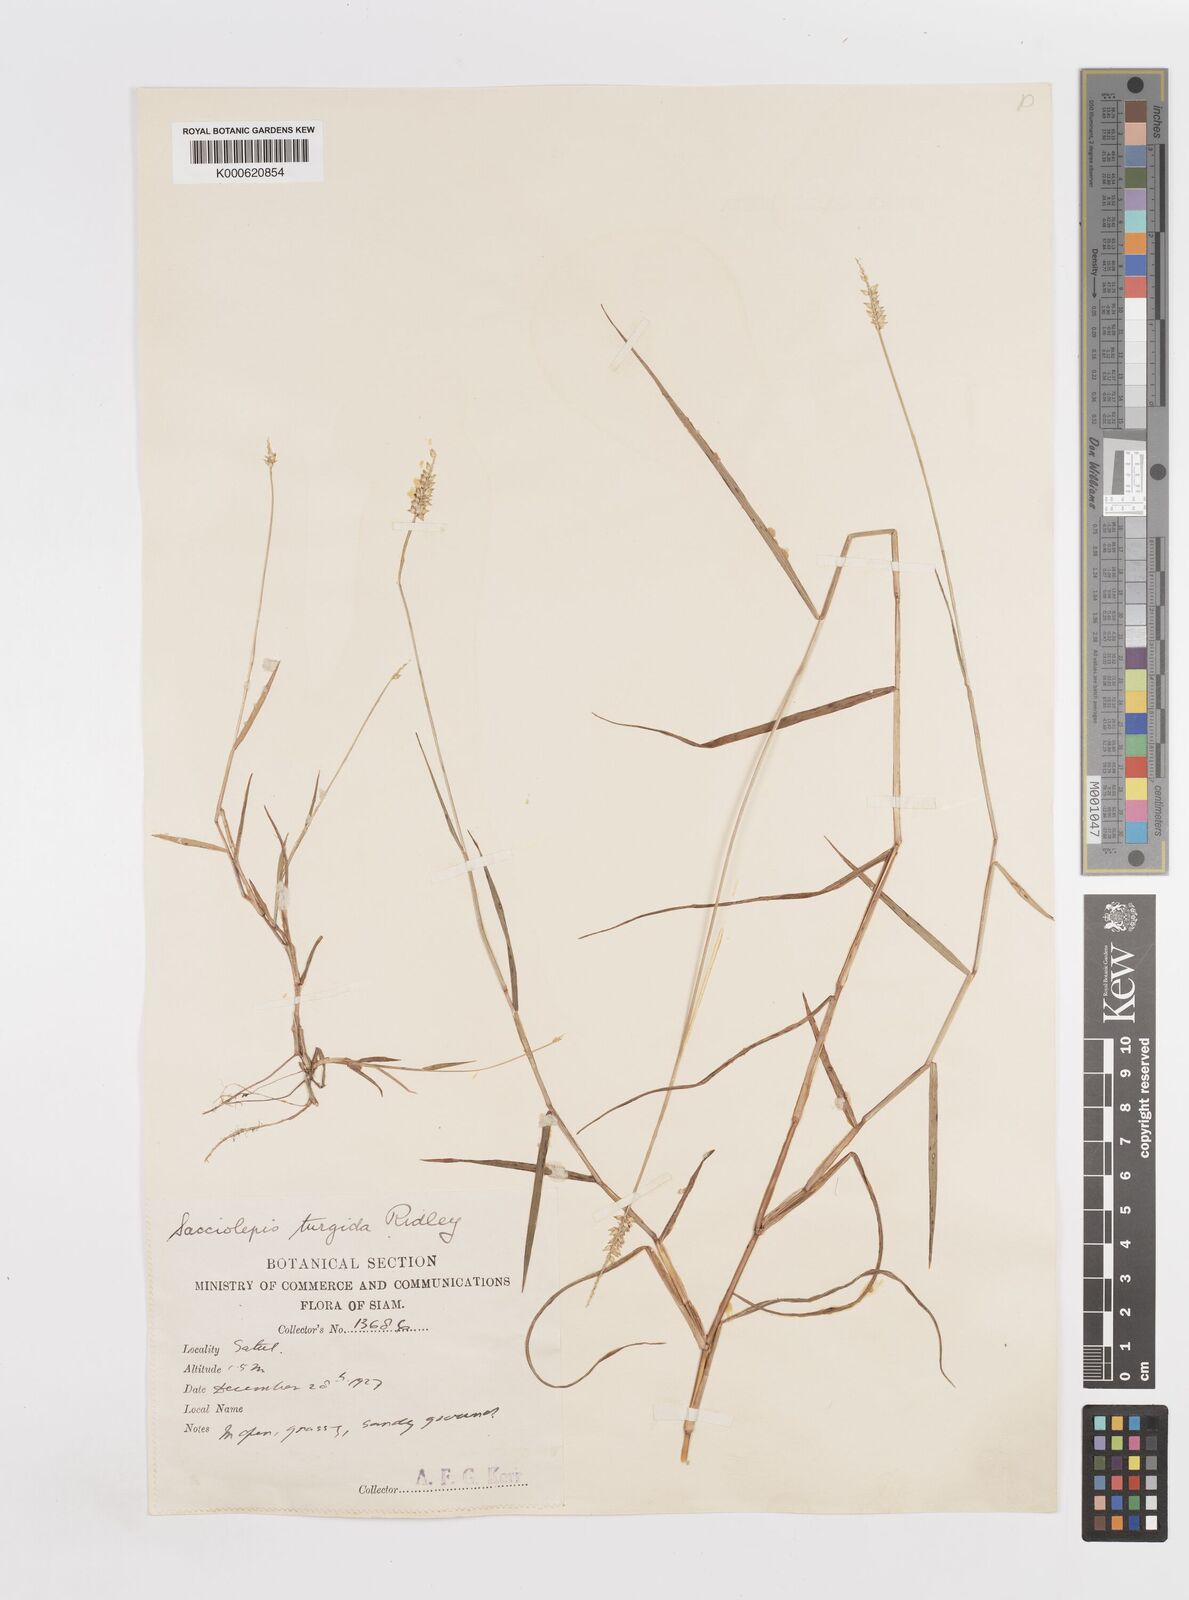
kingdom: Plantae
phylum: Tracheophyta
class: Liliopsida
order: Poales
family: Poaceae
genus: Sacciolepis
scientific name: Sacciolepis indica
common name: Glenwoodgrass
